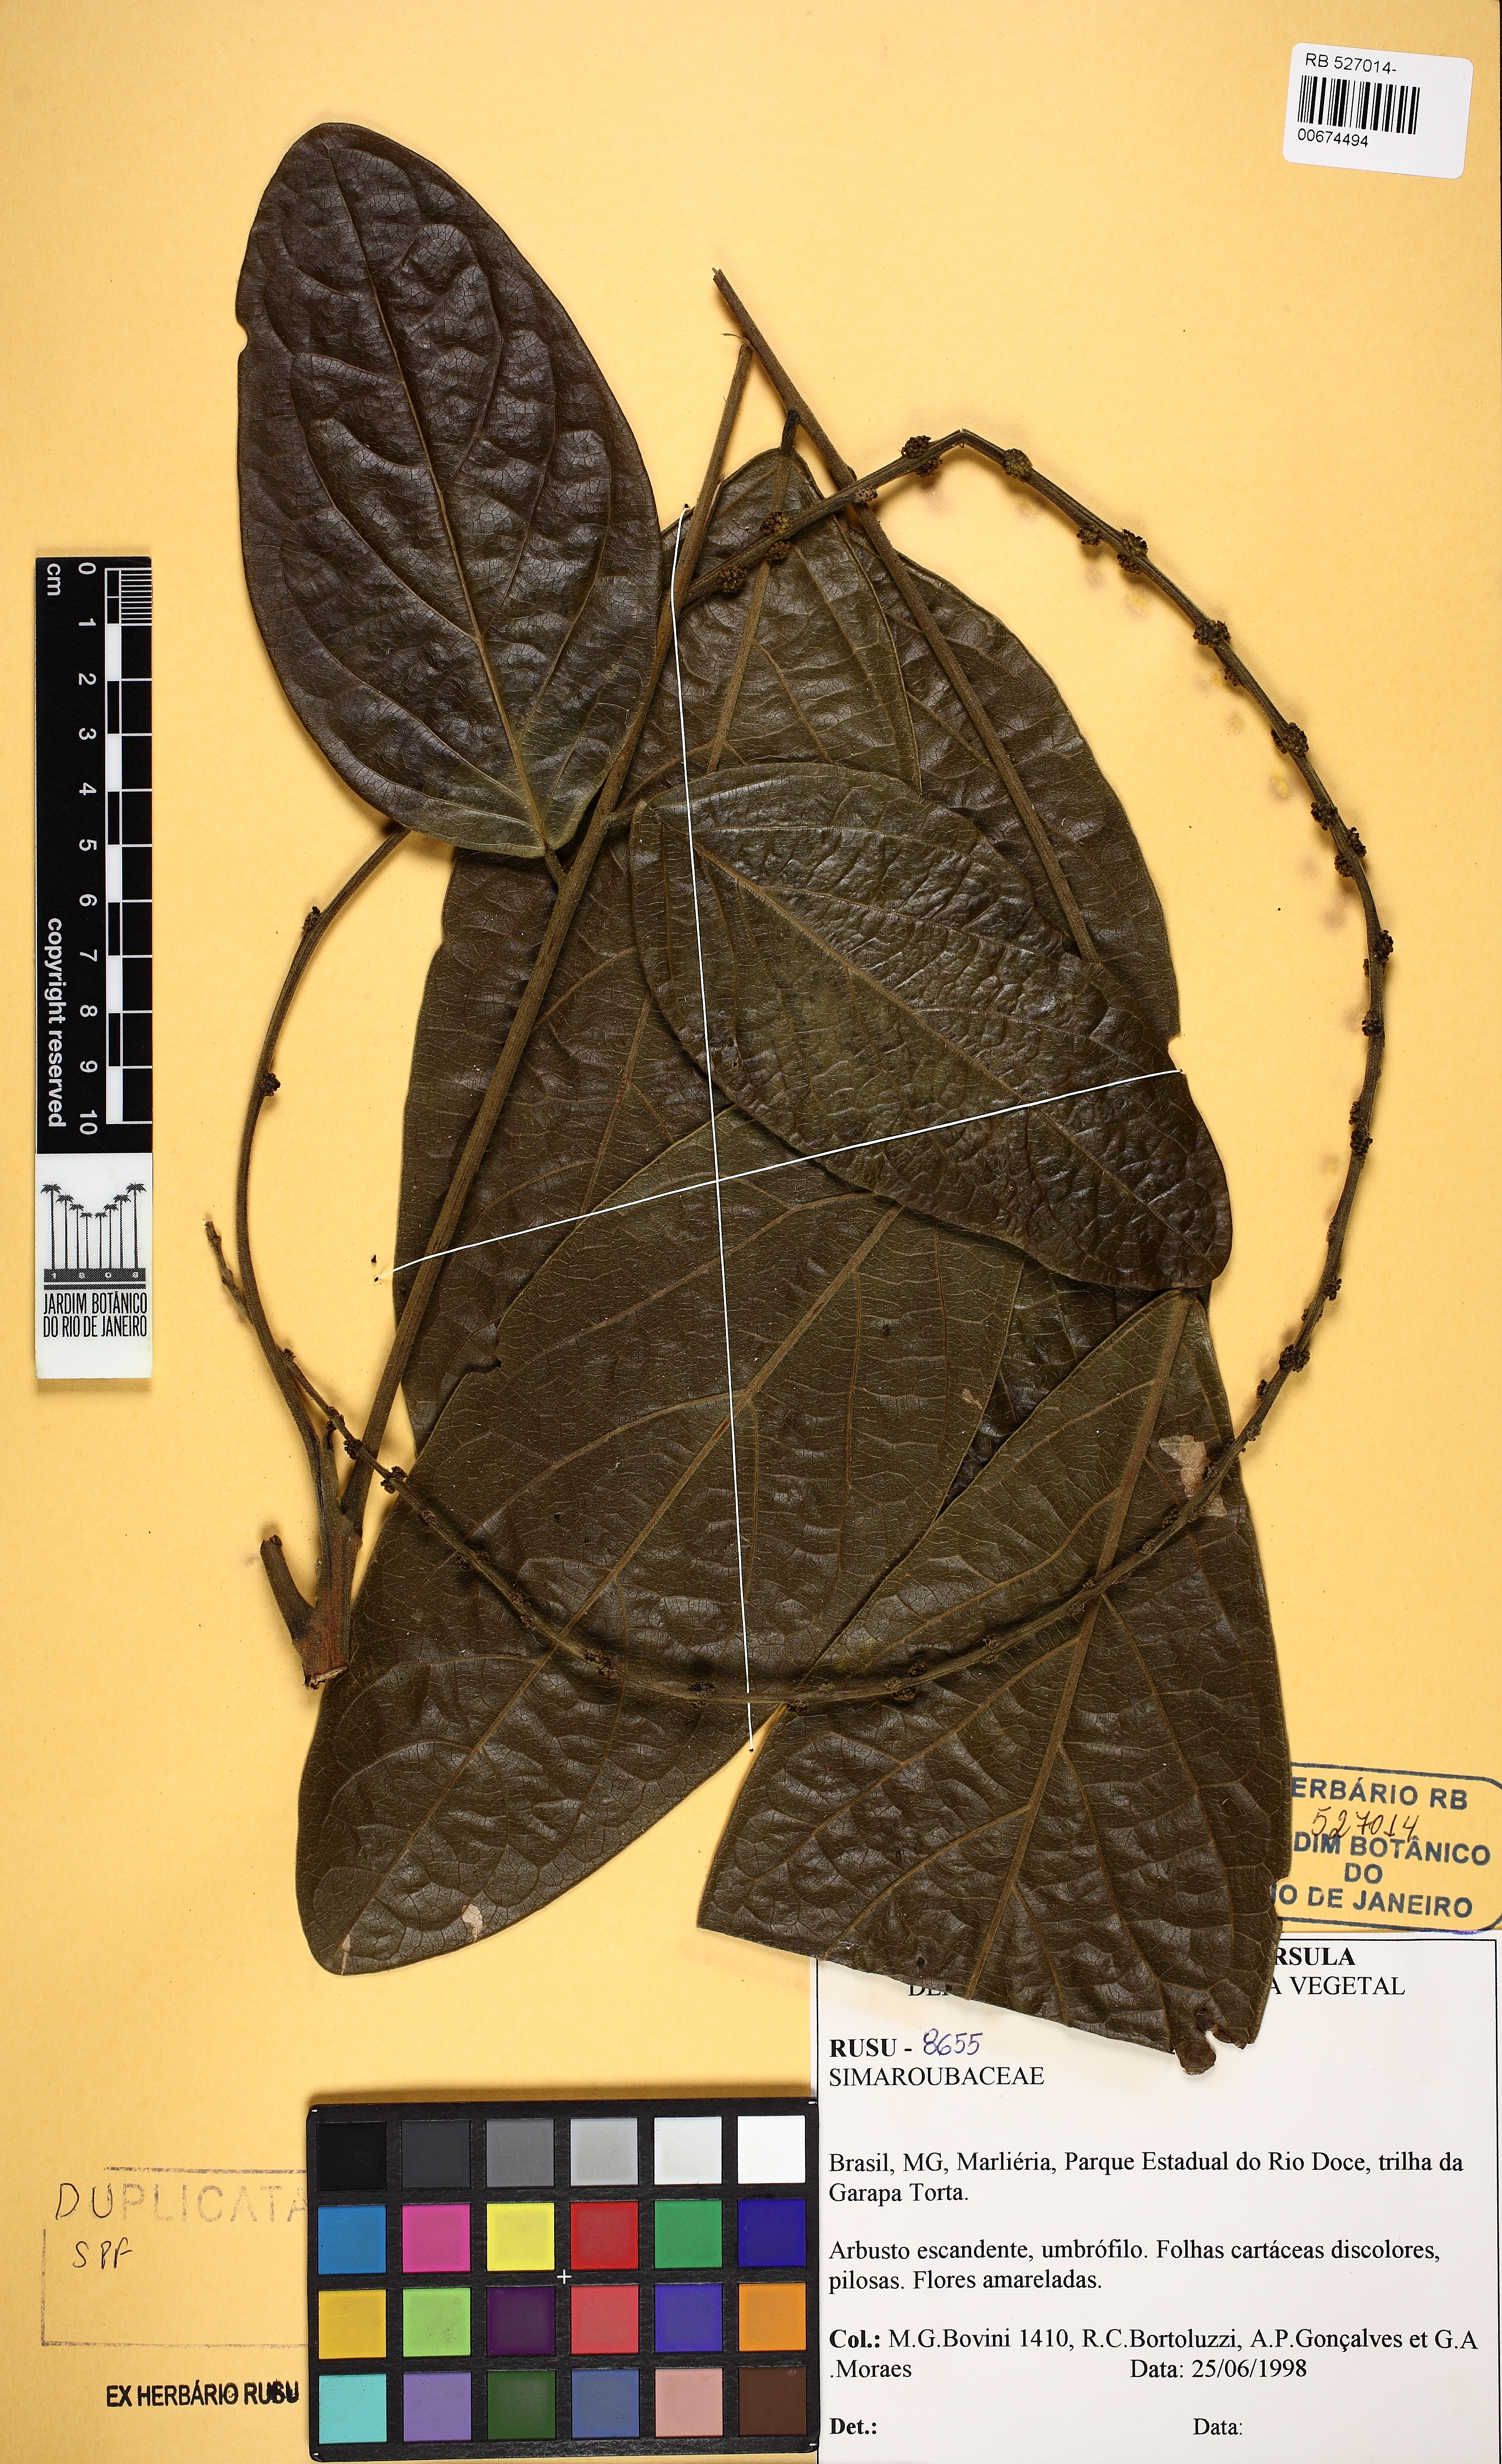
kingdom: Plantae
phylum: Tracheophyta
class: Magnoliopsida
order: Picramniales
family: Picramniaceae
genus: Picramnia
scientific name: Picramnia elliptica
